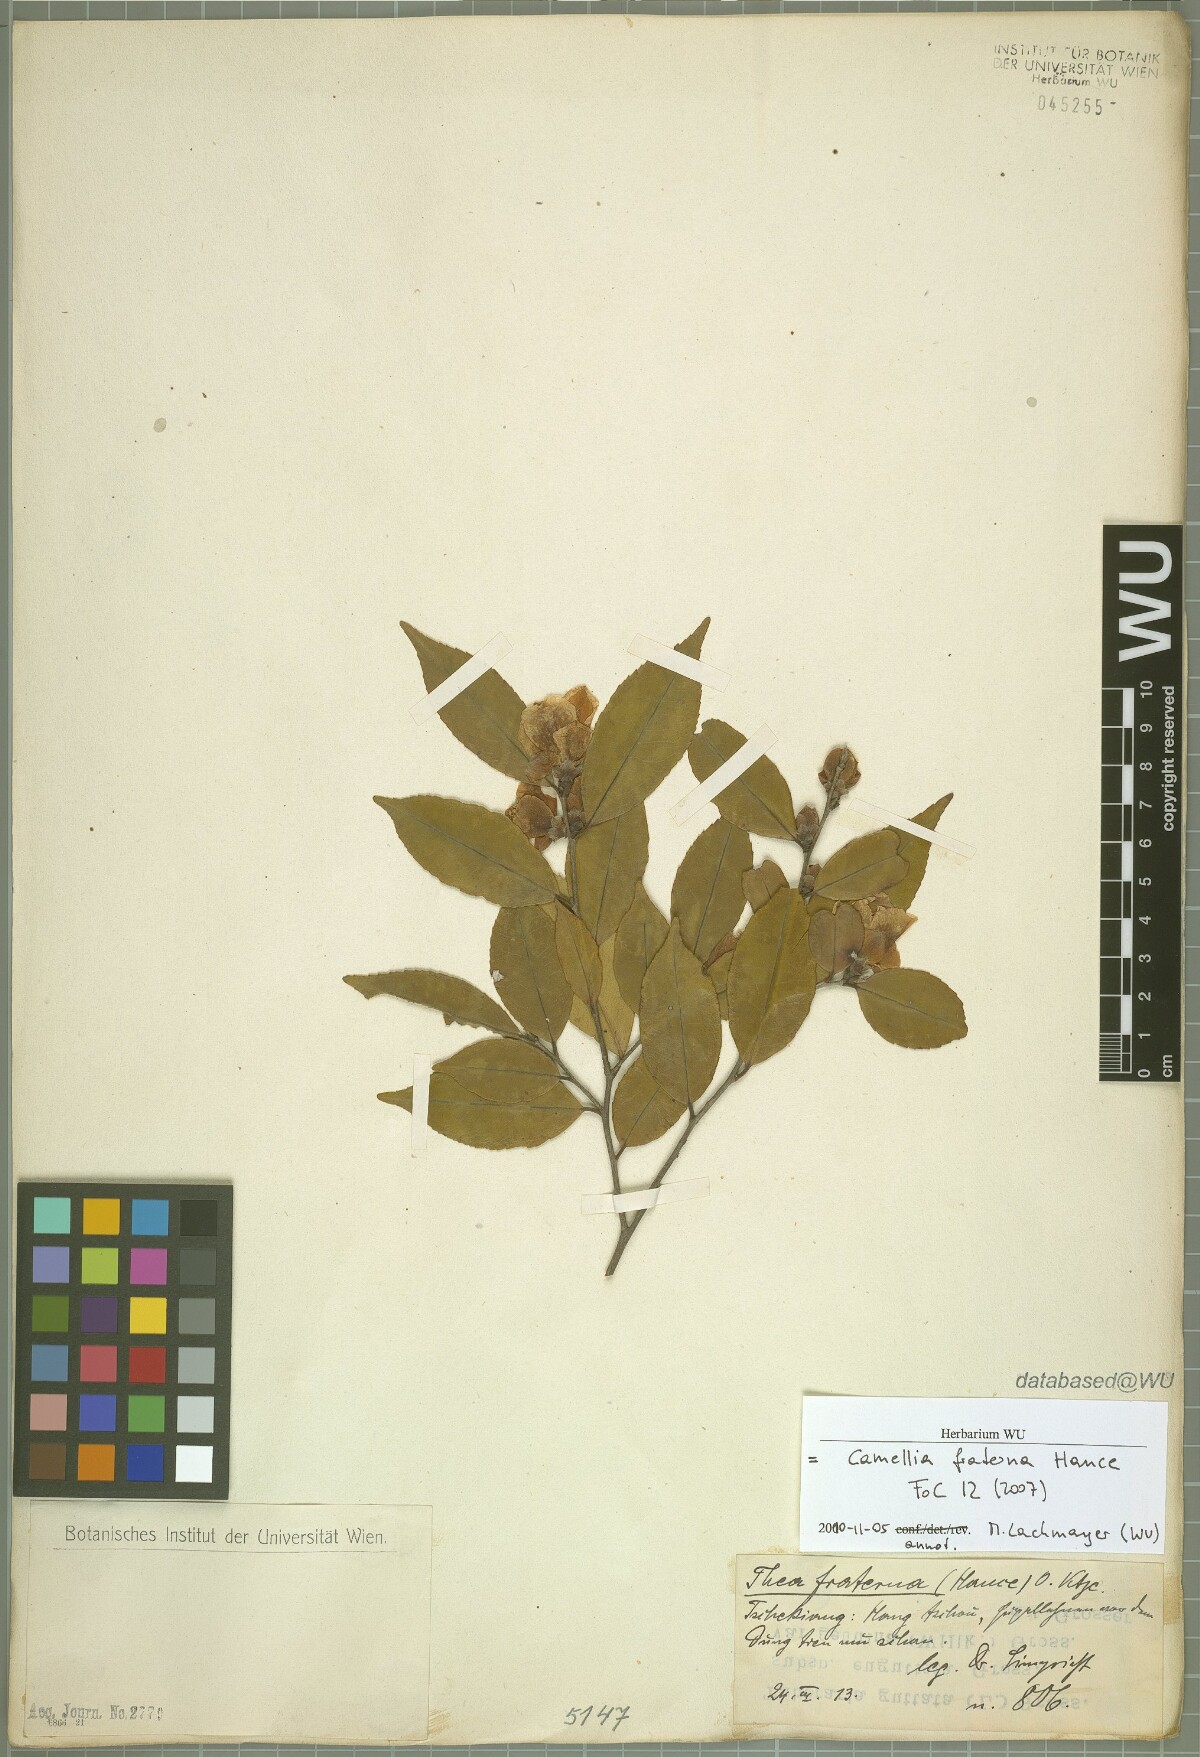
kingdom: Plantae
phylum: Tracheophyta
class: Magnoliopsida
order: Ericales
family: Theaceae
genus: Camellia
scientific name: Camellia fraterna
